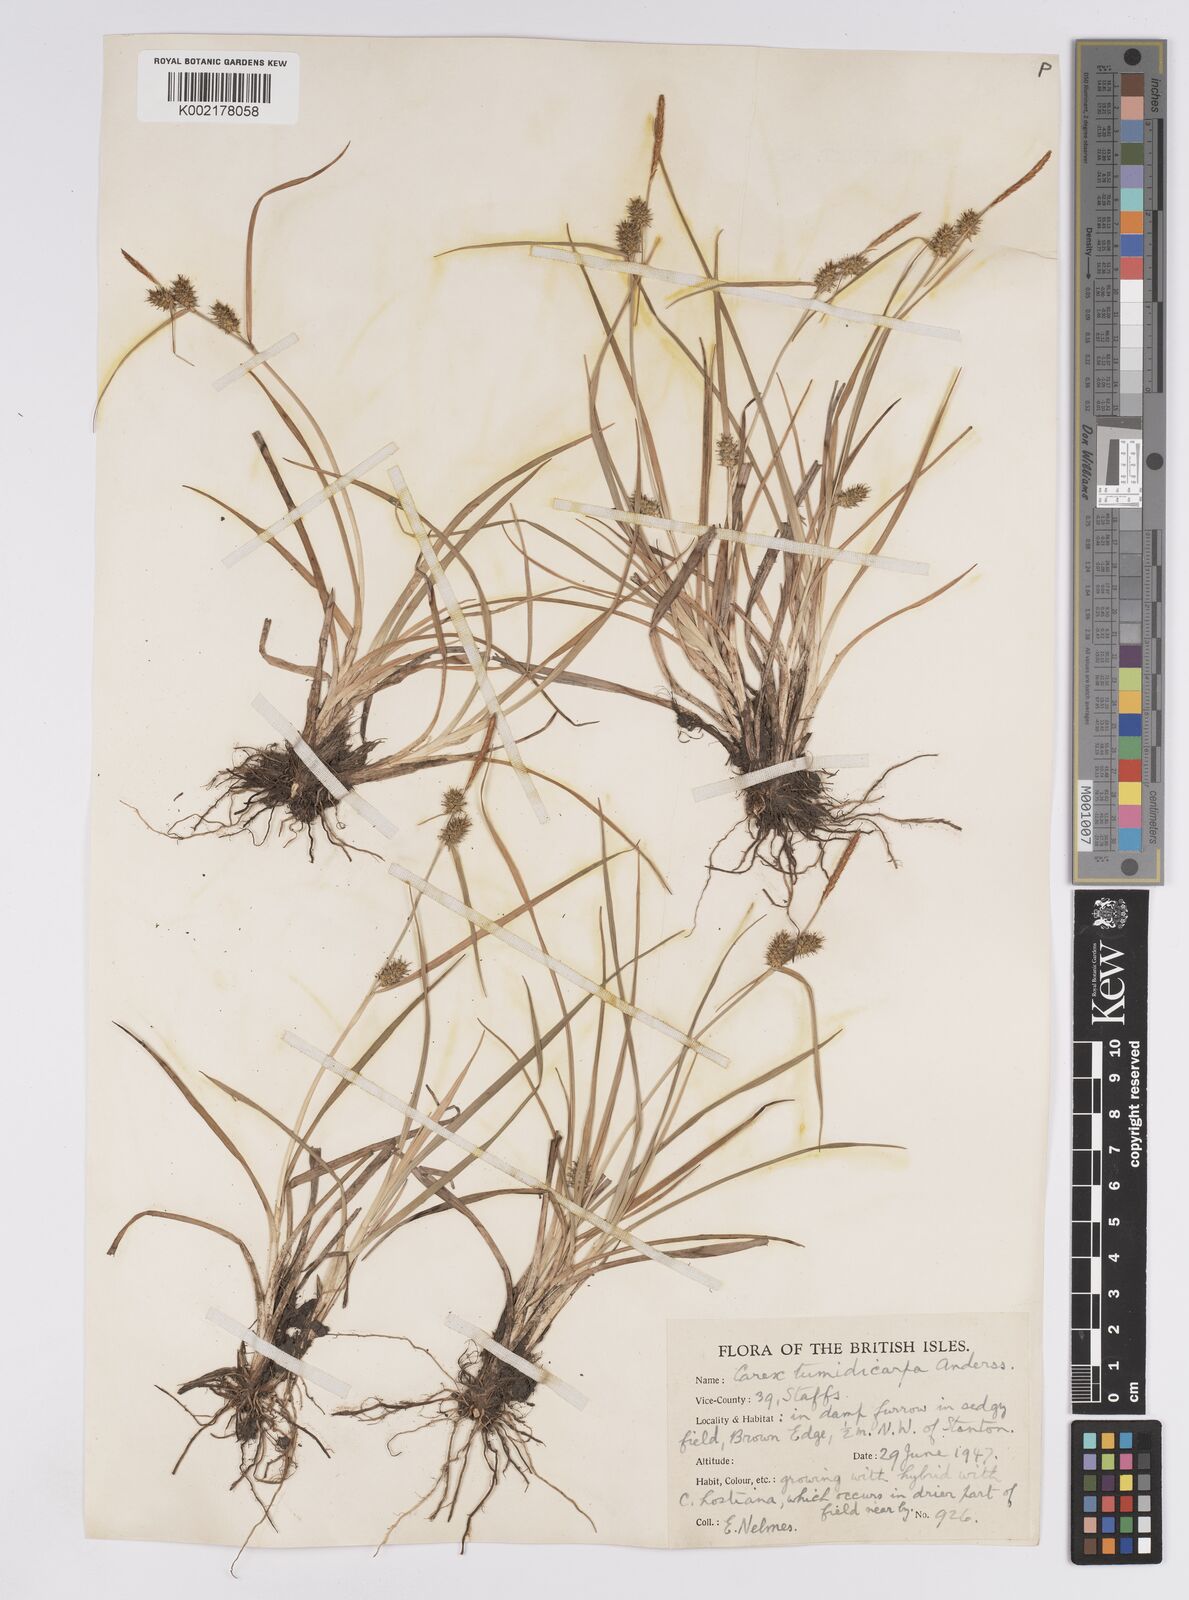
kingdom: Plantae
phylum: Tracheophyta
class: Liliopsida
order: Poales
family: Cyperaceae
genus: Carex
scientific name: Carex demissa
